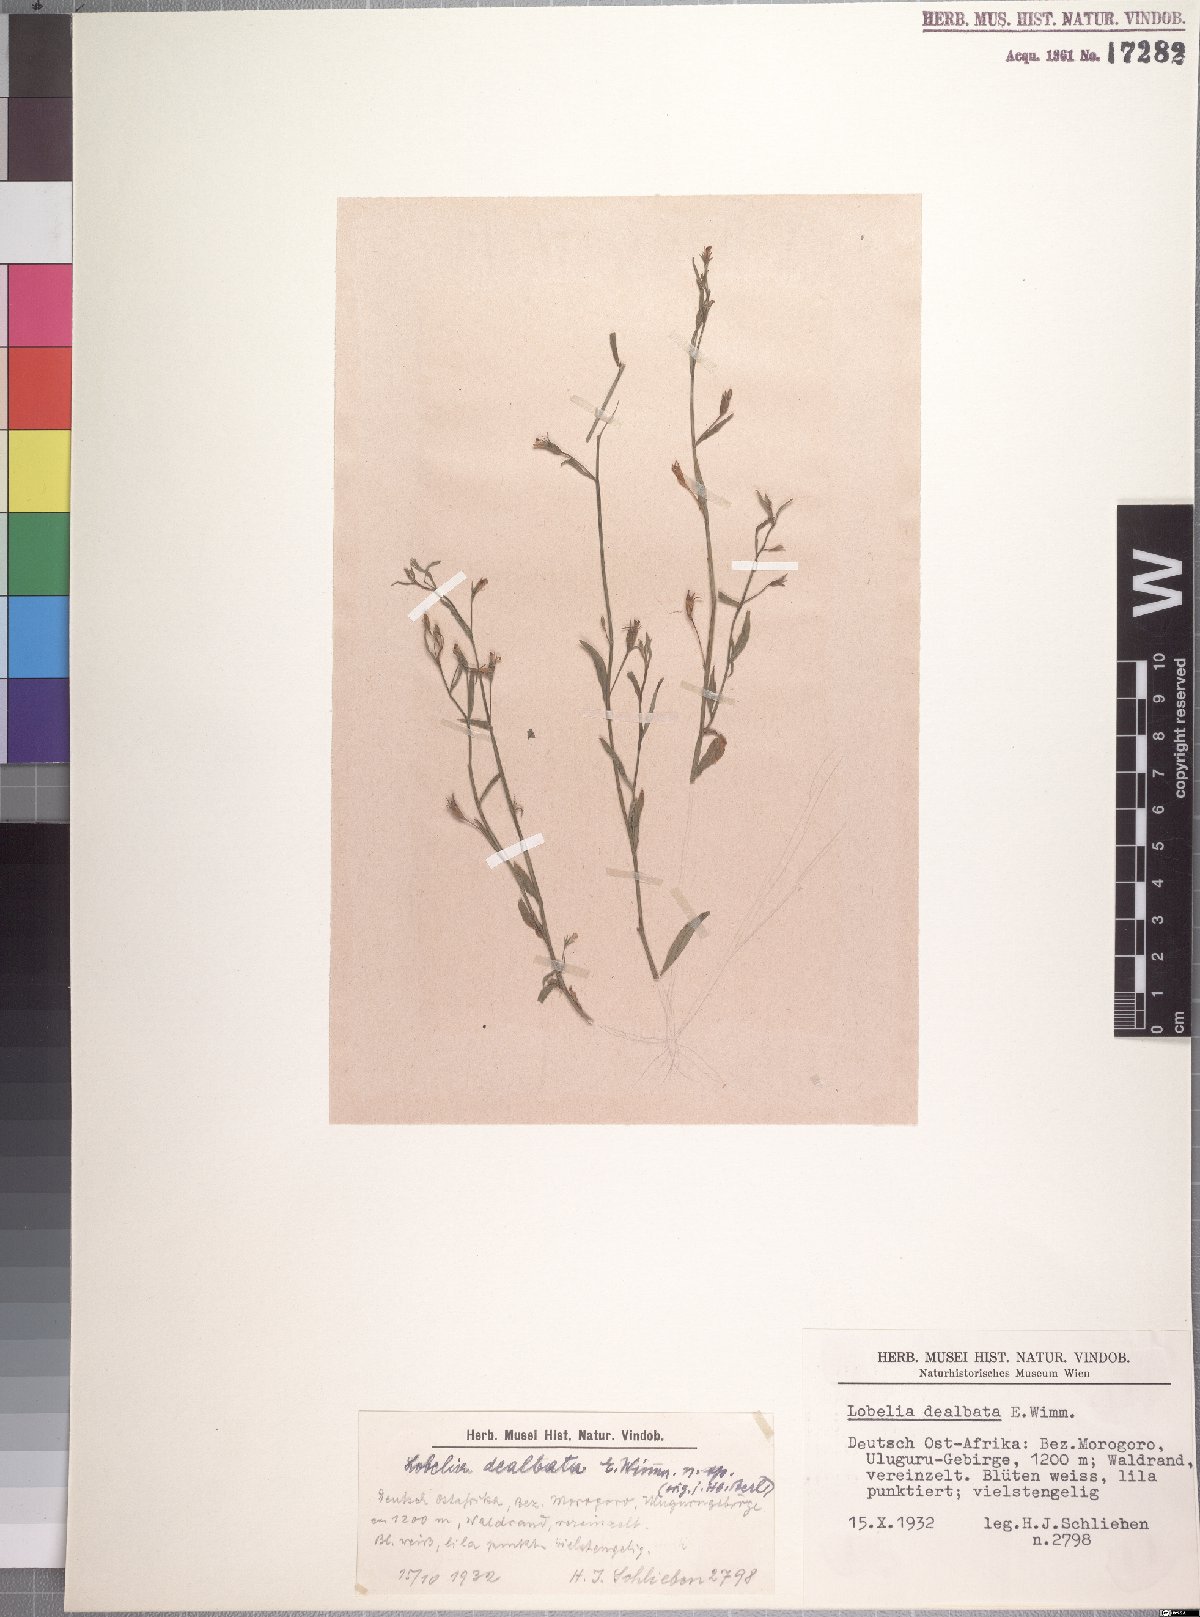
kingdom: Plantae
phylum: Tracheophyta
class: Magnoliopsida
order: Asterales
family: Campanulaceae
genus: Lobelia
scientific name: Lobelia molleri
